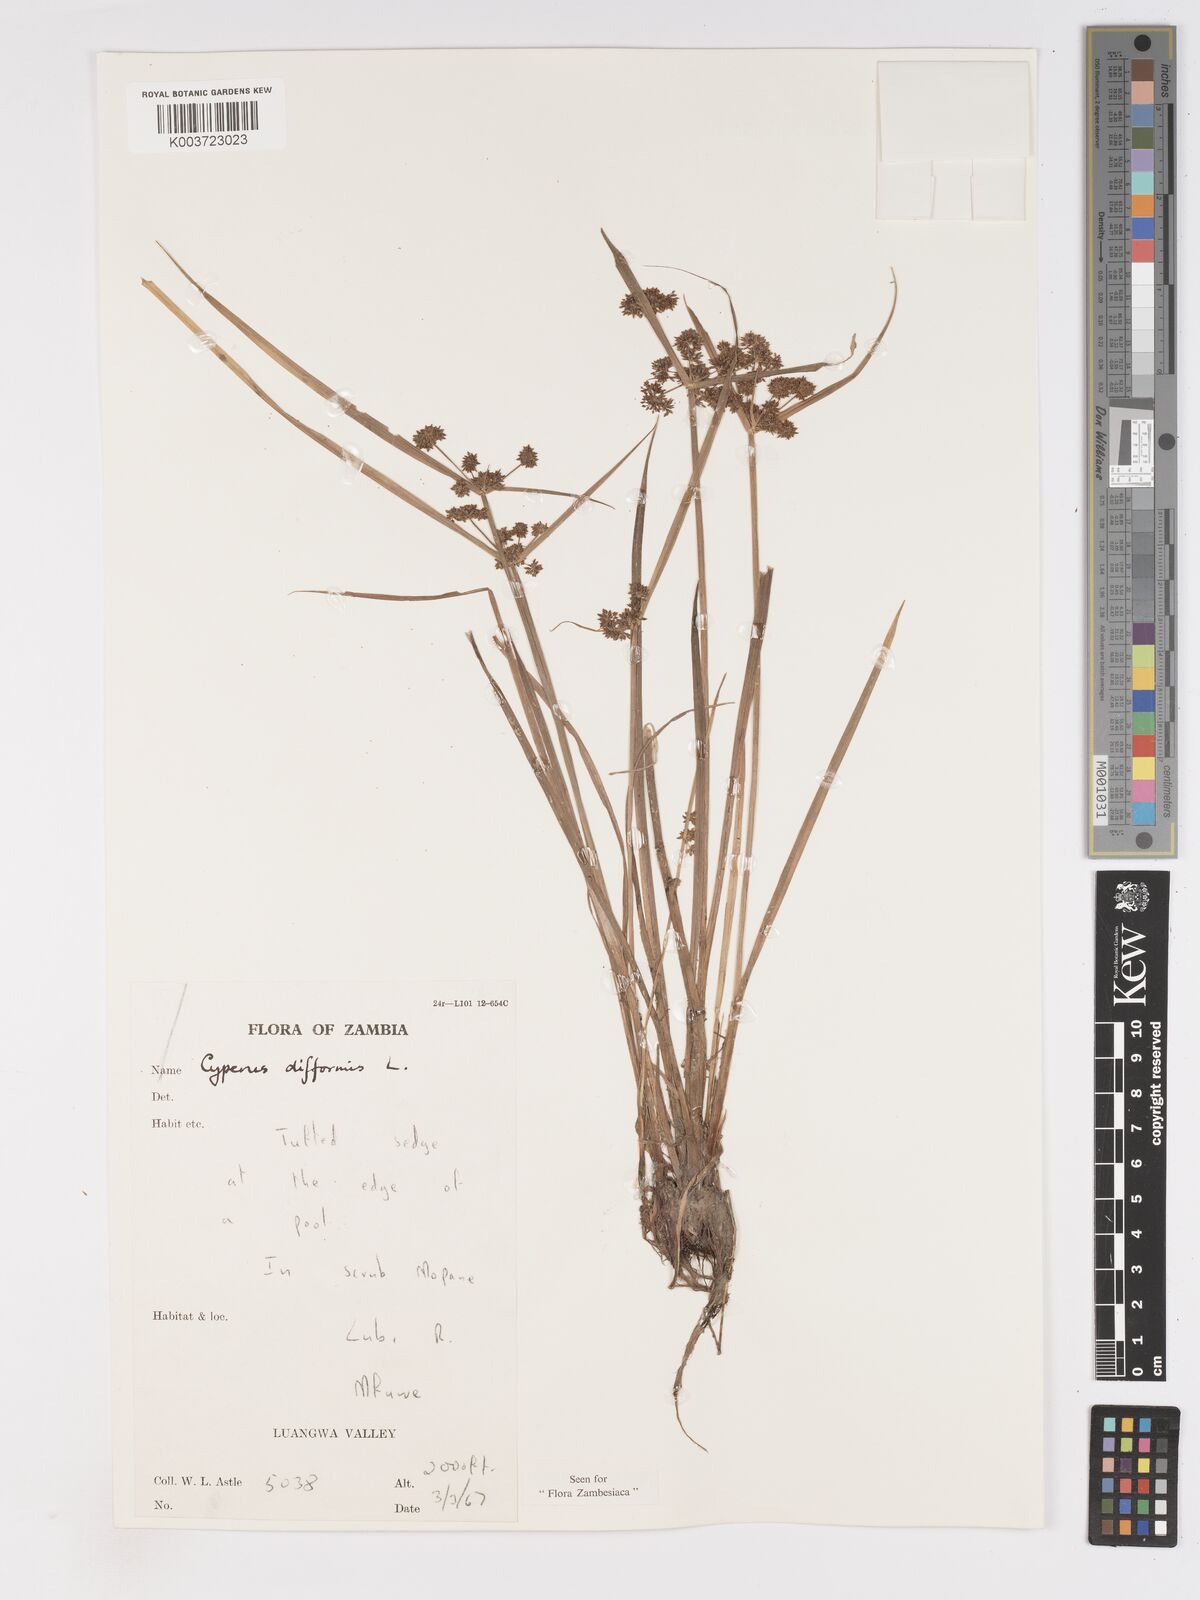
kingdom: Plantae
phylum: Tracheophyta
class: Liliopsida
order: Poales
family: Cyperaceae
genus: Cyperus
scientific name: Cyperus difformis
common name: Variable flatsedge
